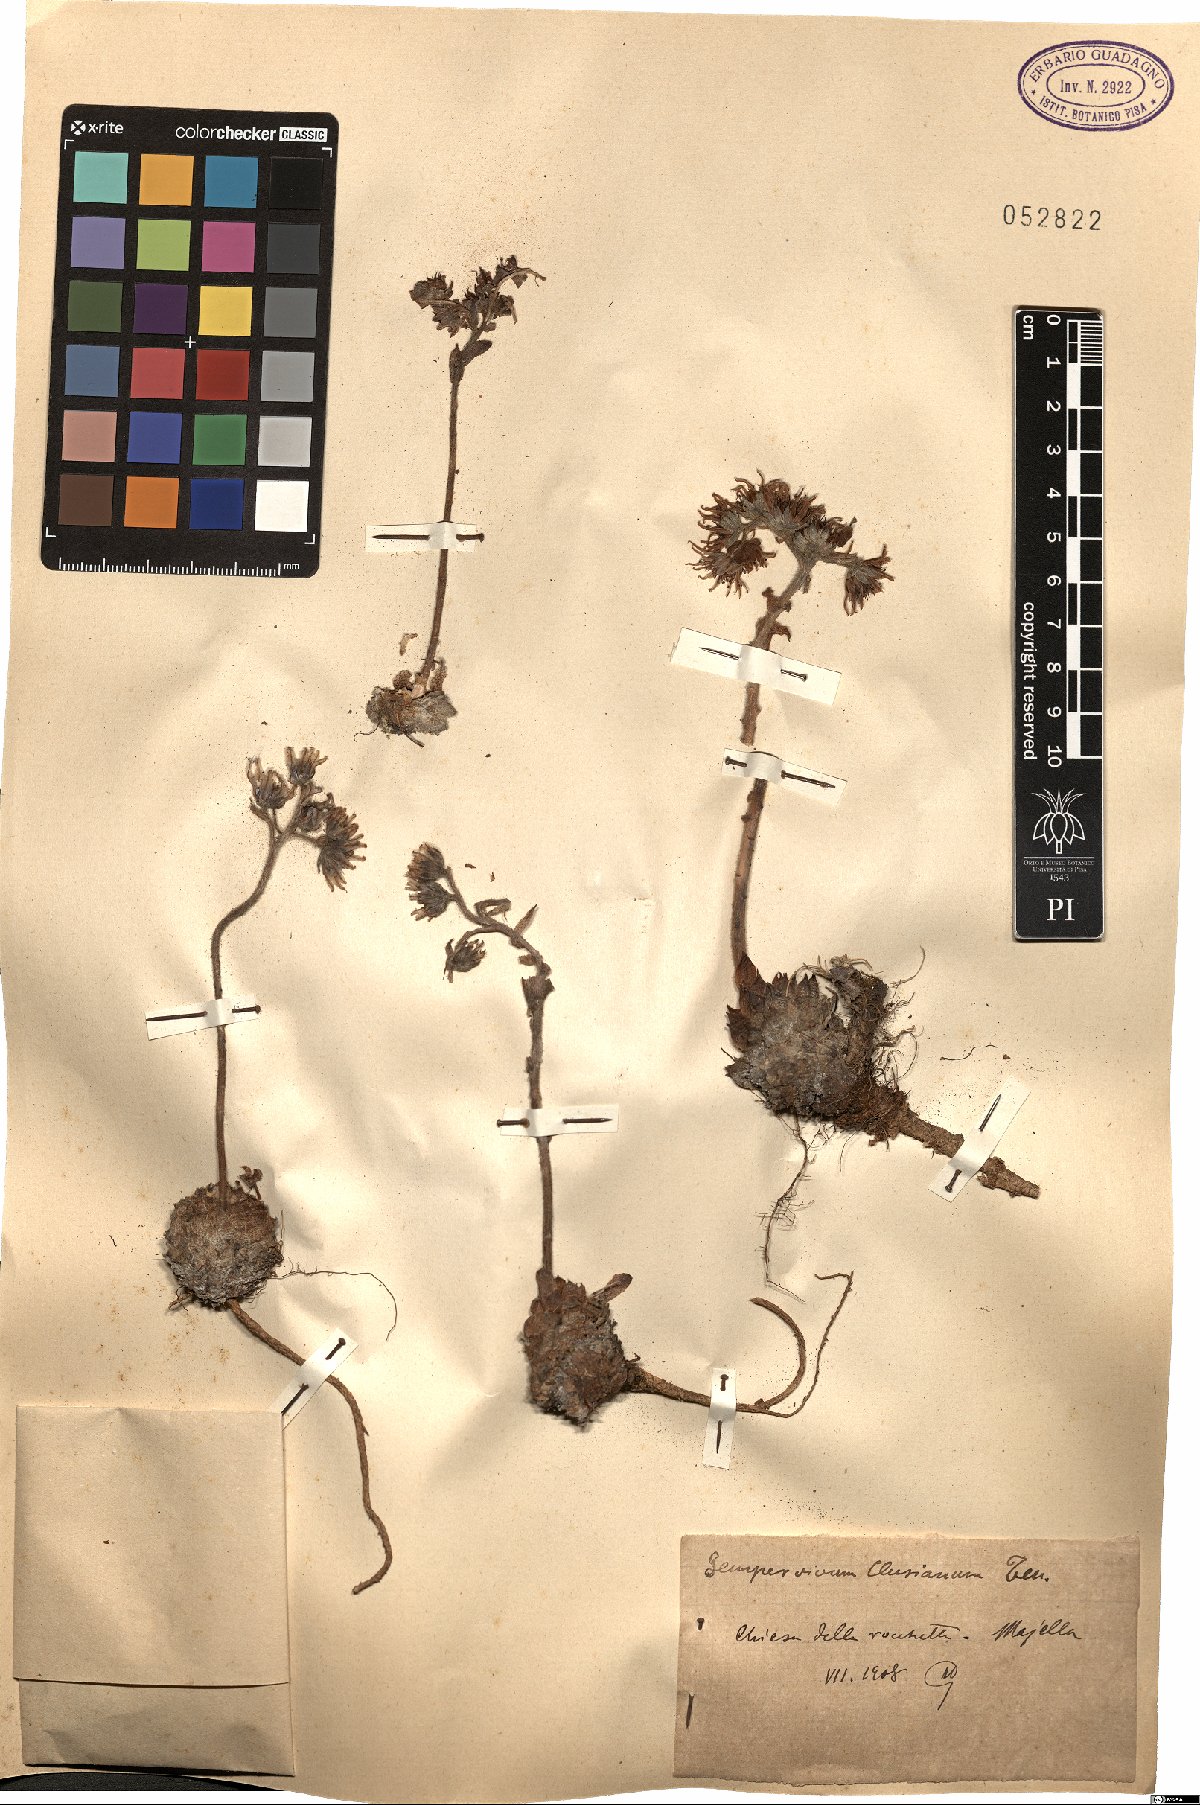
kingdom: Plantae
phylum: Tracheophyta
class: Magnoliopsida
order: Saxifragales
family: Crassulaceae
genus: Sempervivum
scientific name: Sempervivum tectorum
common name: House-leek
